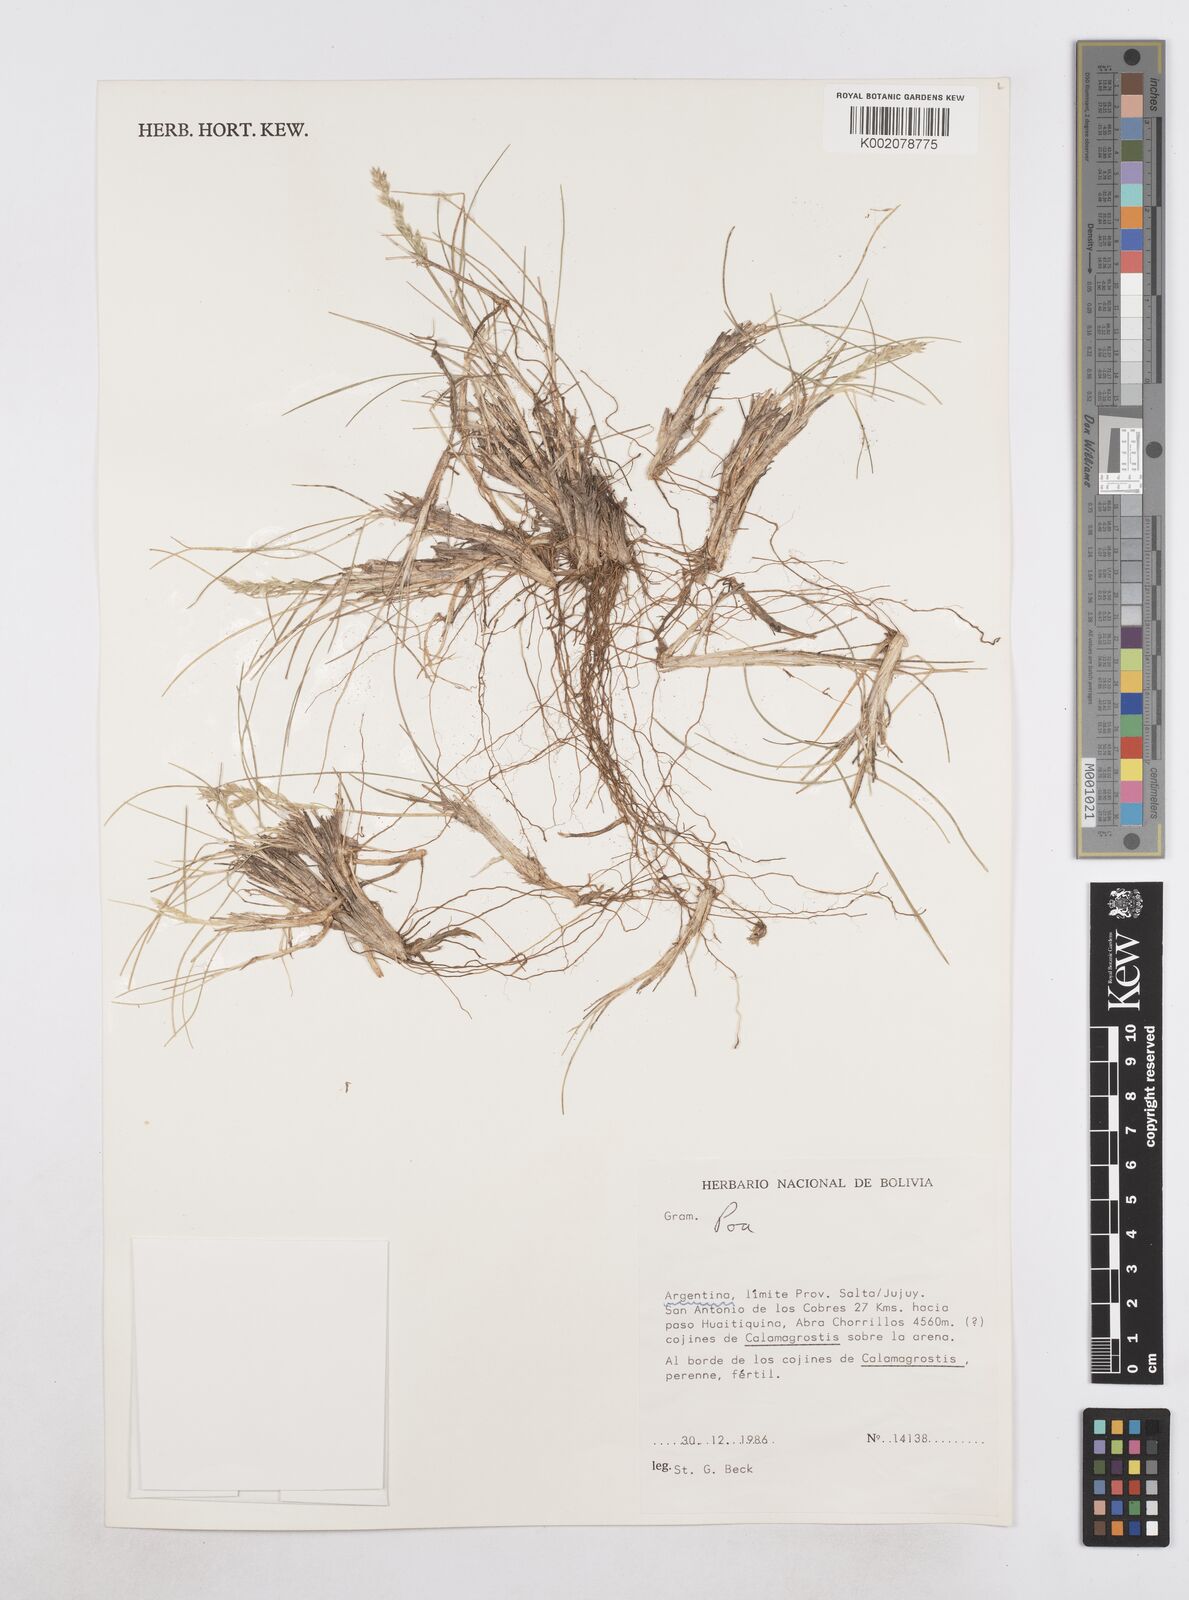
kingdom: Plantae
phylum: Tracheophyta
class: Liliopsida
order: Poales
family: Poaceae
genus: Poa
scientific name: Poa
